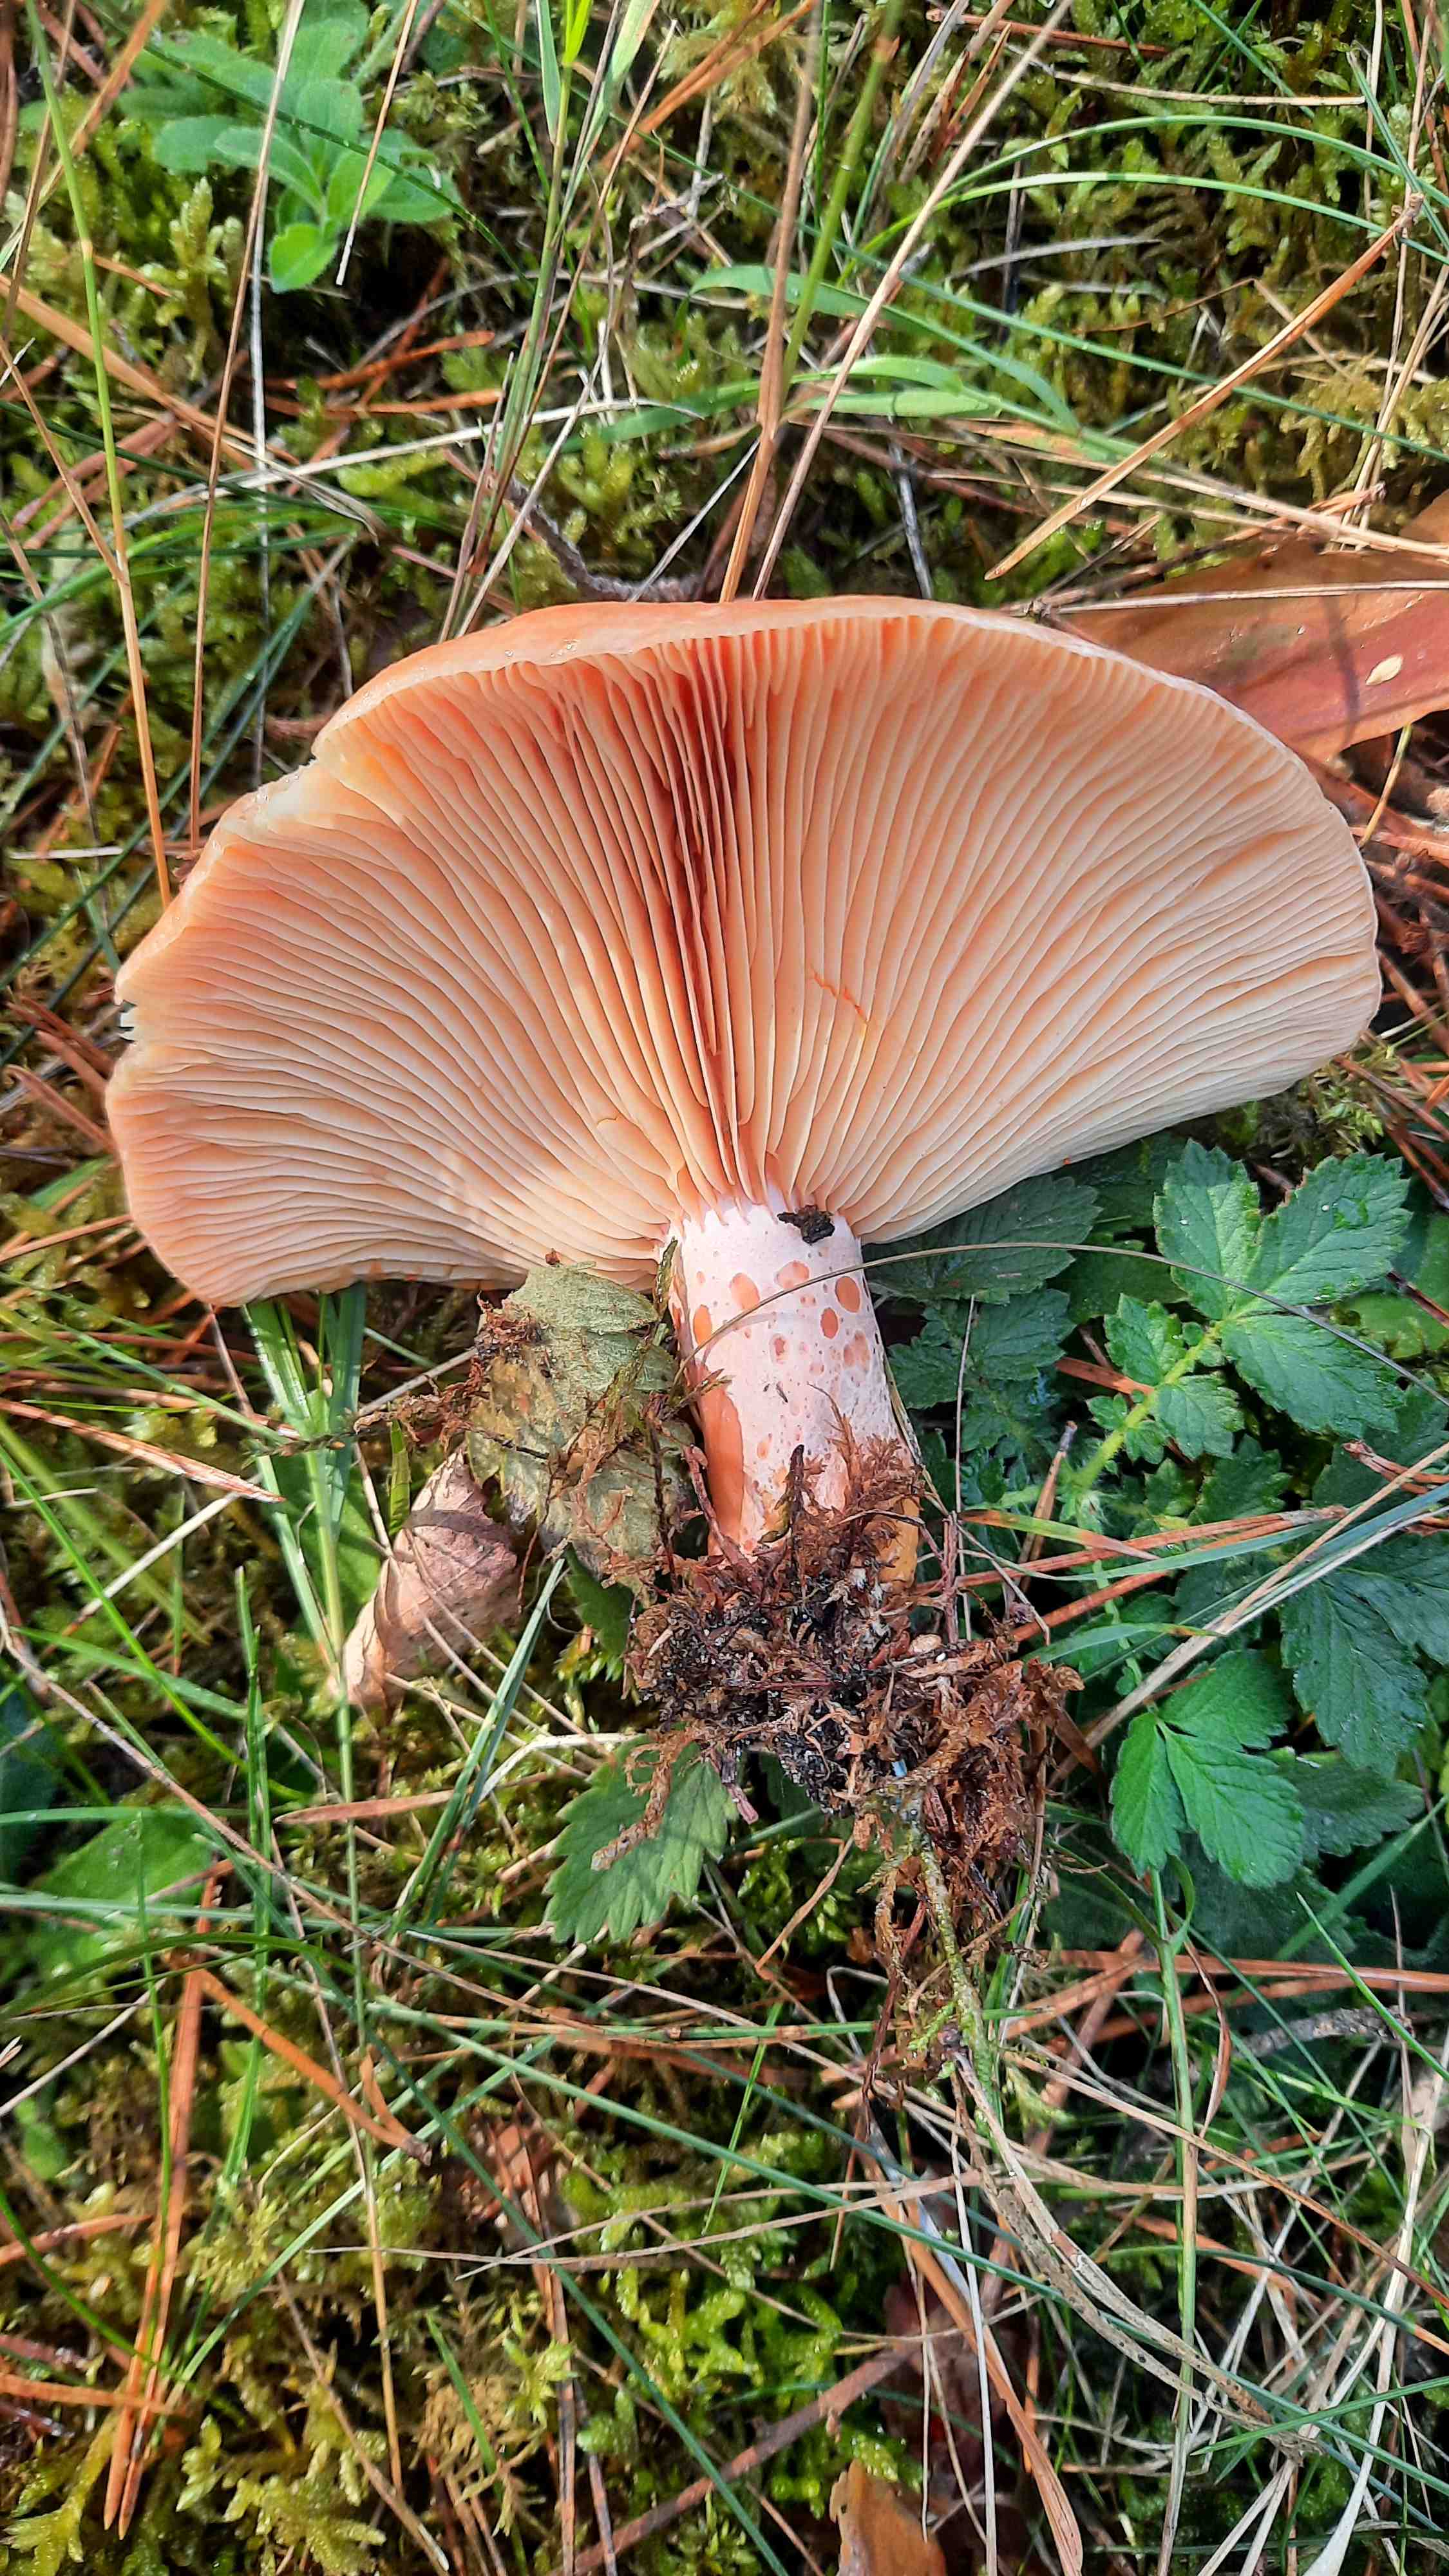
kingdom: Fungi
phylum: Basidiomycota
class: Agaricomycetes
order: Russulales
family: Russulaceae
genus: Lactarius
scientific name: Lactarius deliciosus
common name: velsmagende mælkehat
